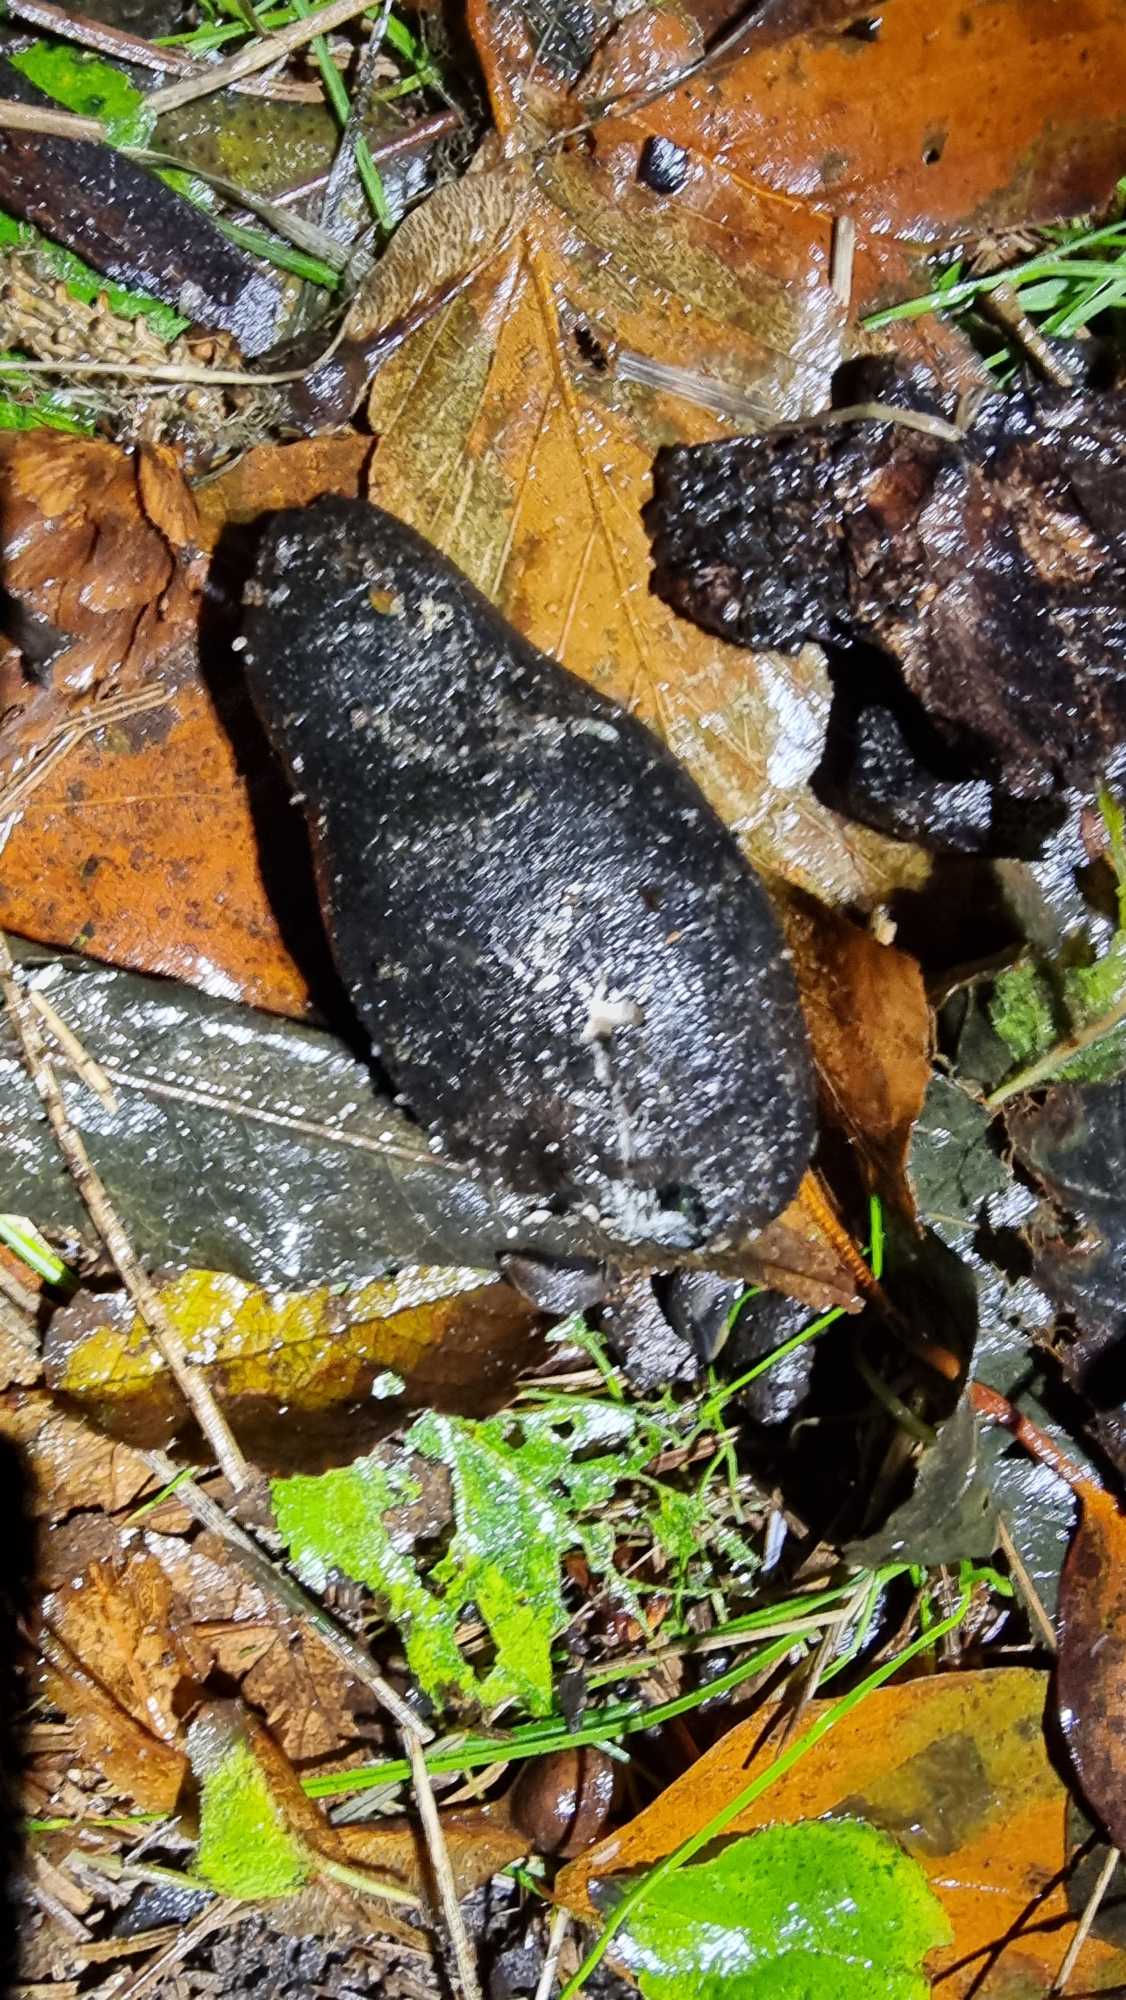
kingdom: Fungi
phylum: Ascomycota
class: Sordariomycetes
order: Xylariales
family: Xylariaceae
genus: Xylaria
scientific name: Xylaria polymorpha
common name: Kølle-stødsvamp
